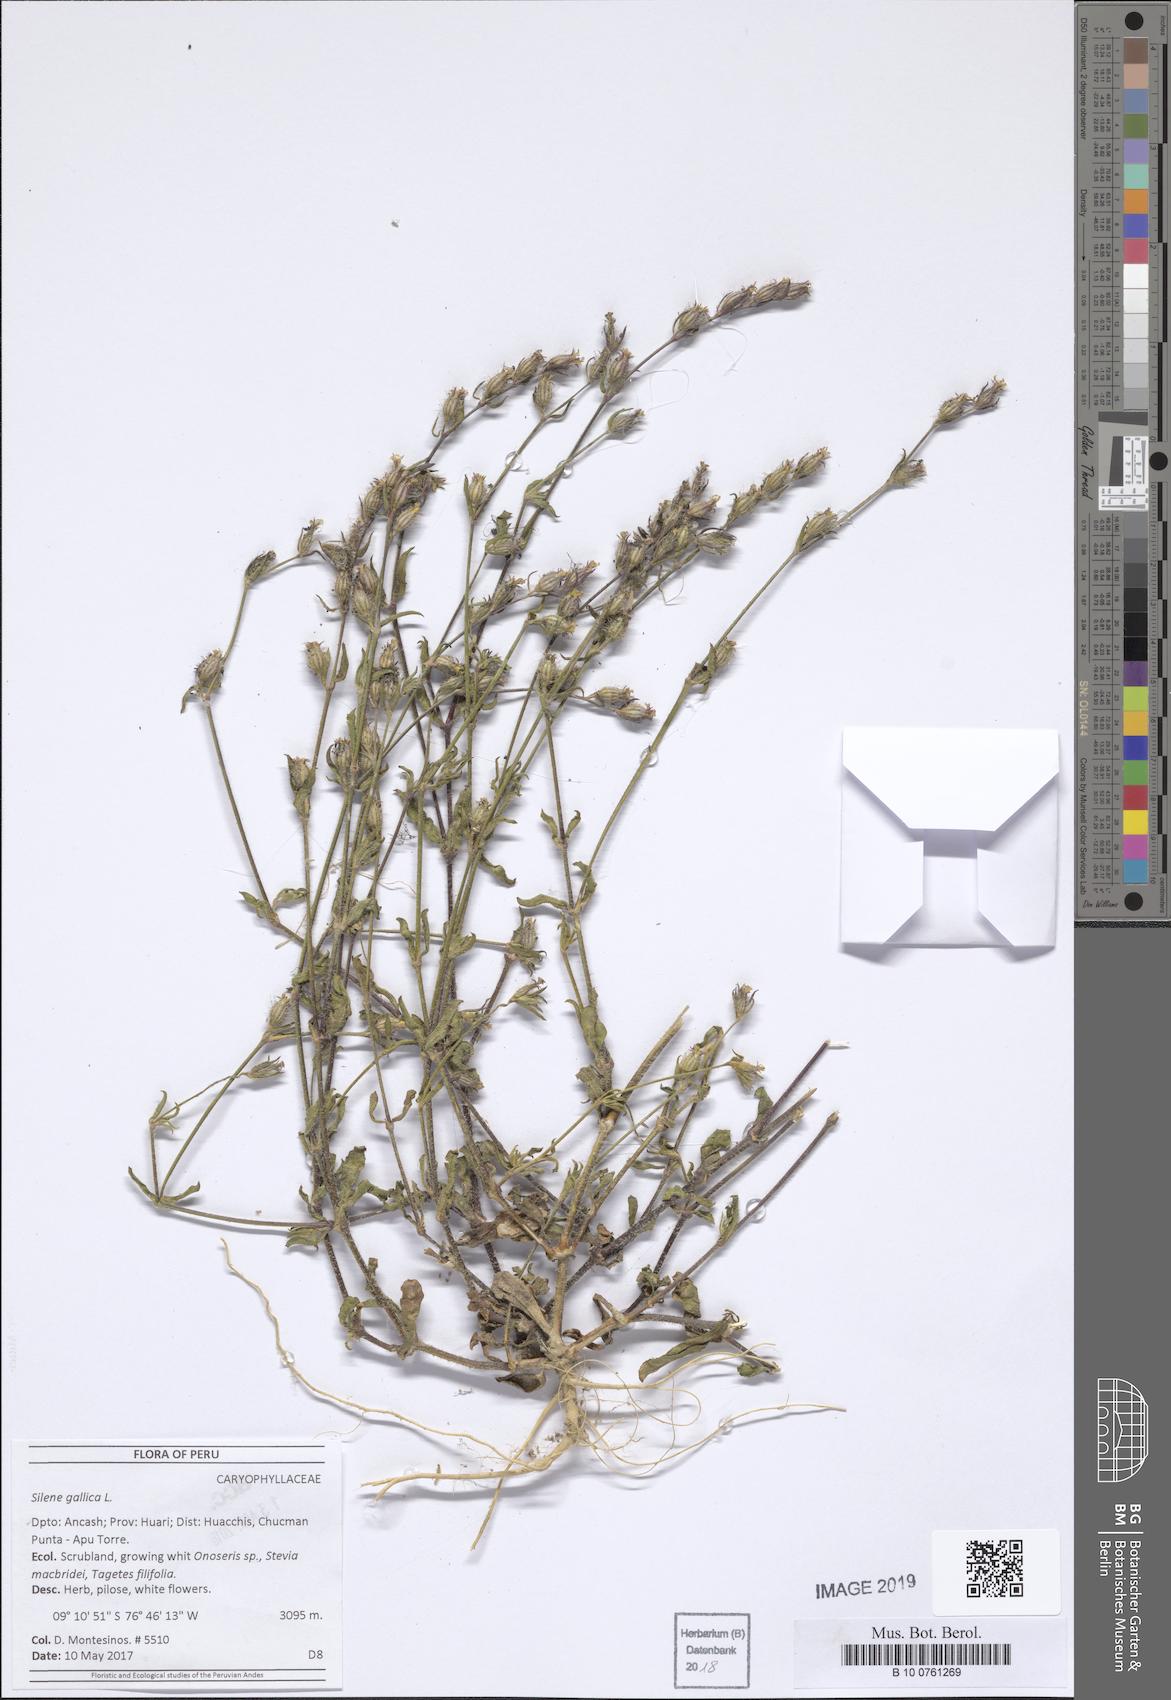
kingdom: Plantae
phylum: Tracheophyta
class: Magnoliopsida
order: Caryophyllales
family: Caryophyllaceae
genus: Silene
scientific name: Silene gallica
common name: Small-flowered catchfly
